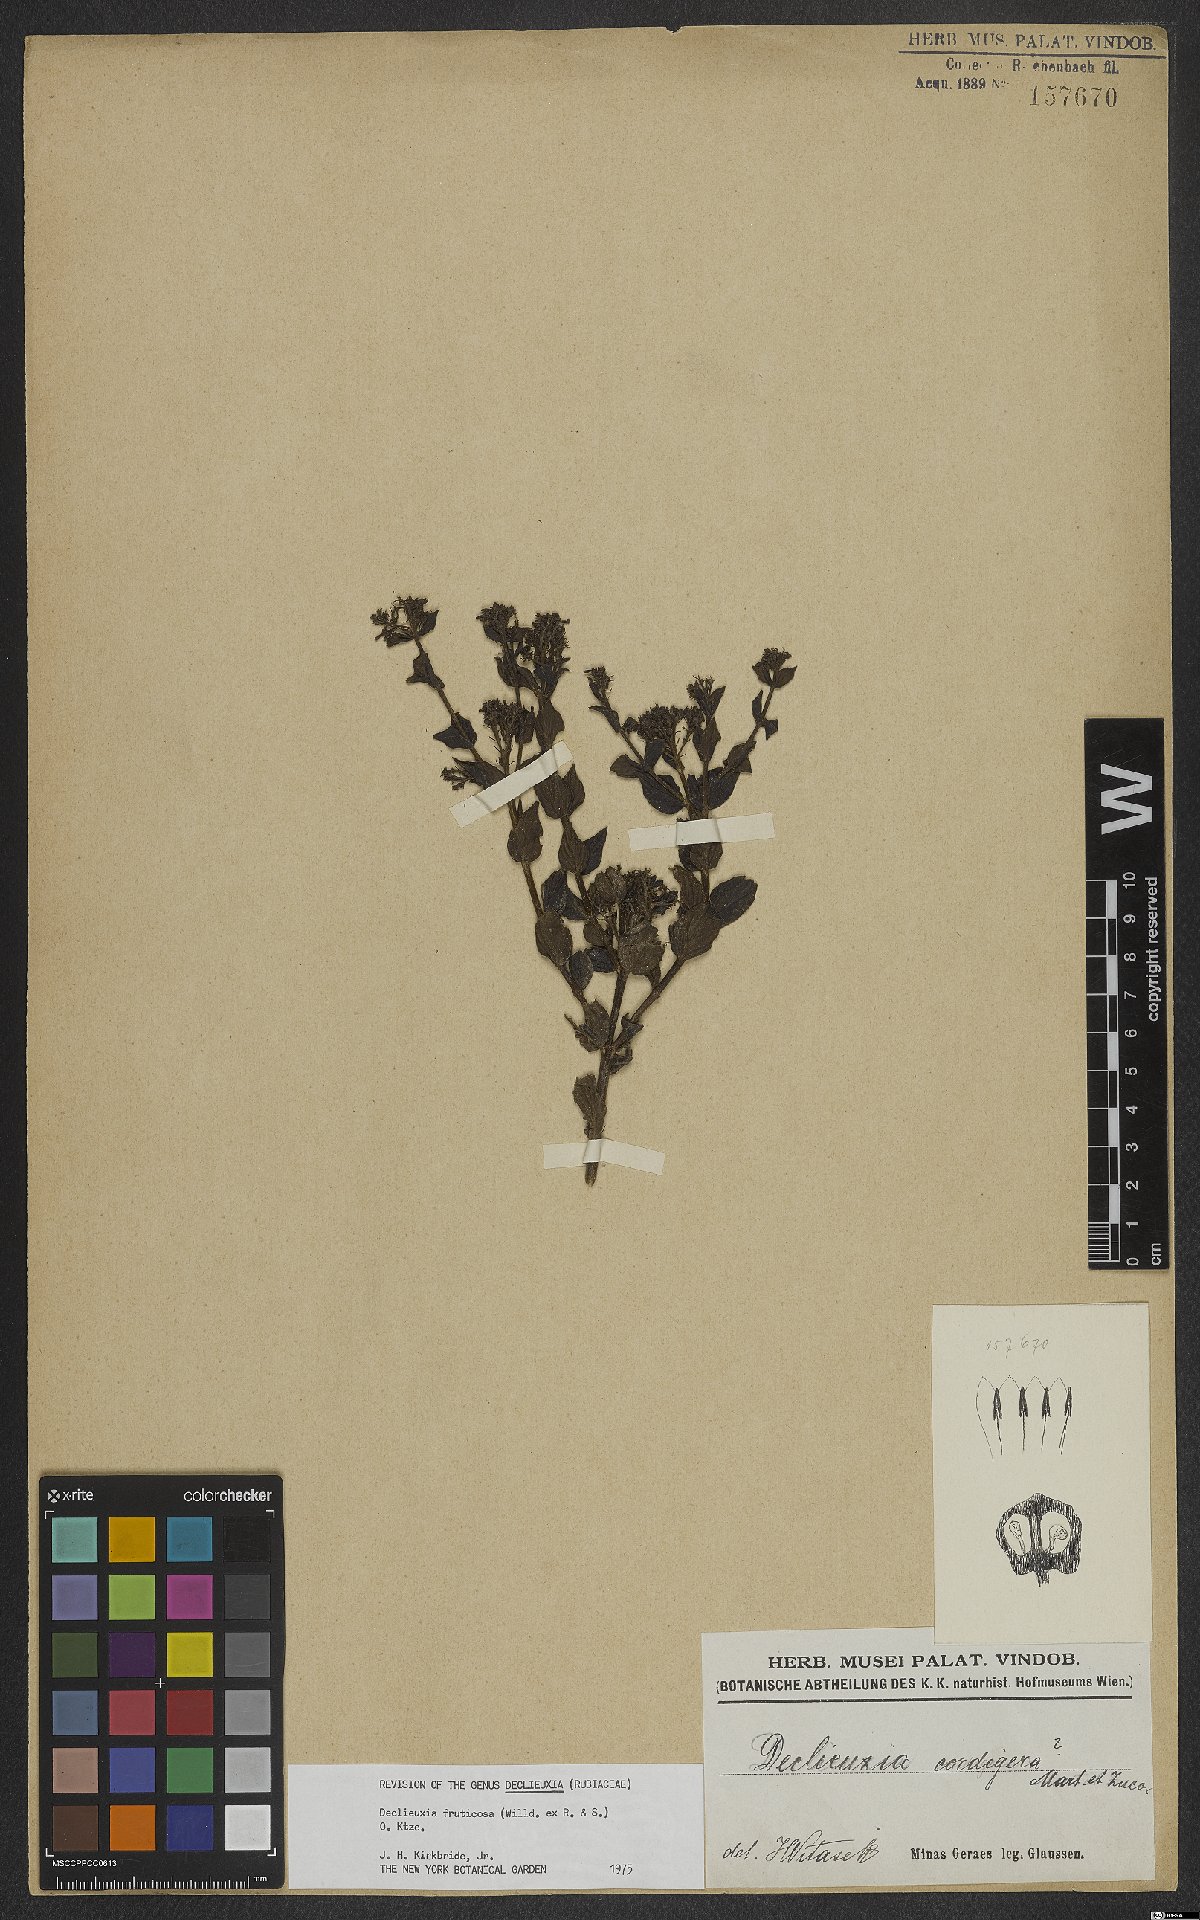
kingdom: Plantae
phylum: Tracheophyta
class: Magnoliopsida
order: Gentianales
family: Rubiaceae
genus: Declieuxia
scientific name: Declieuxia fruticosa
